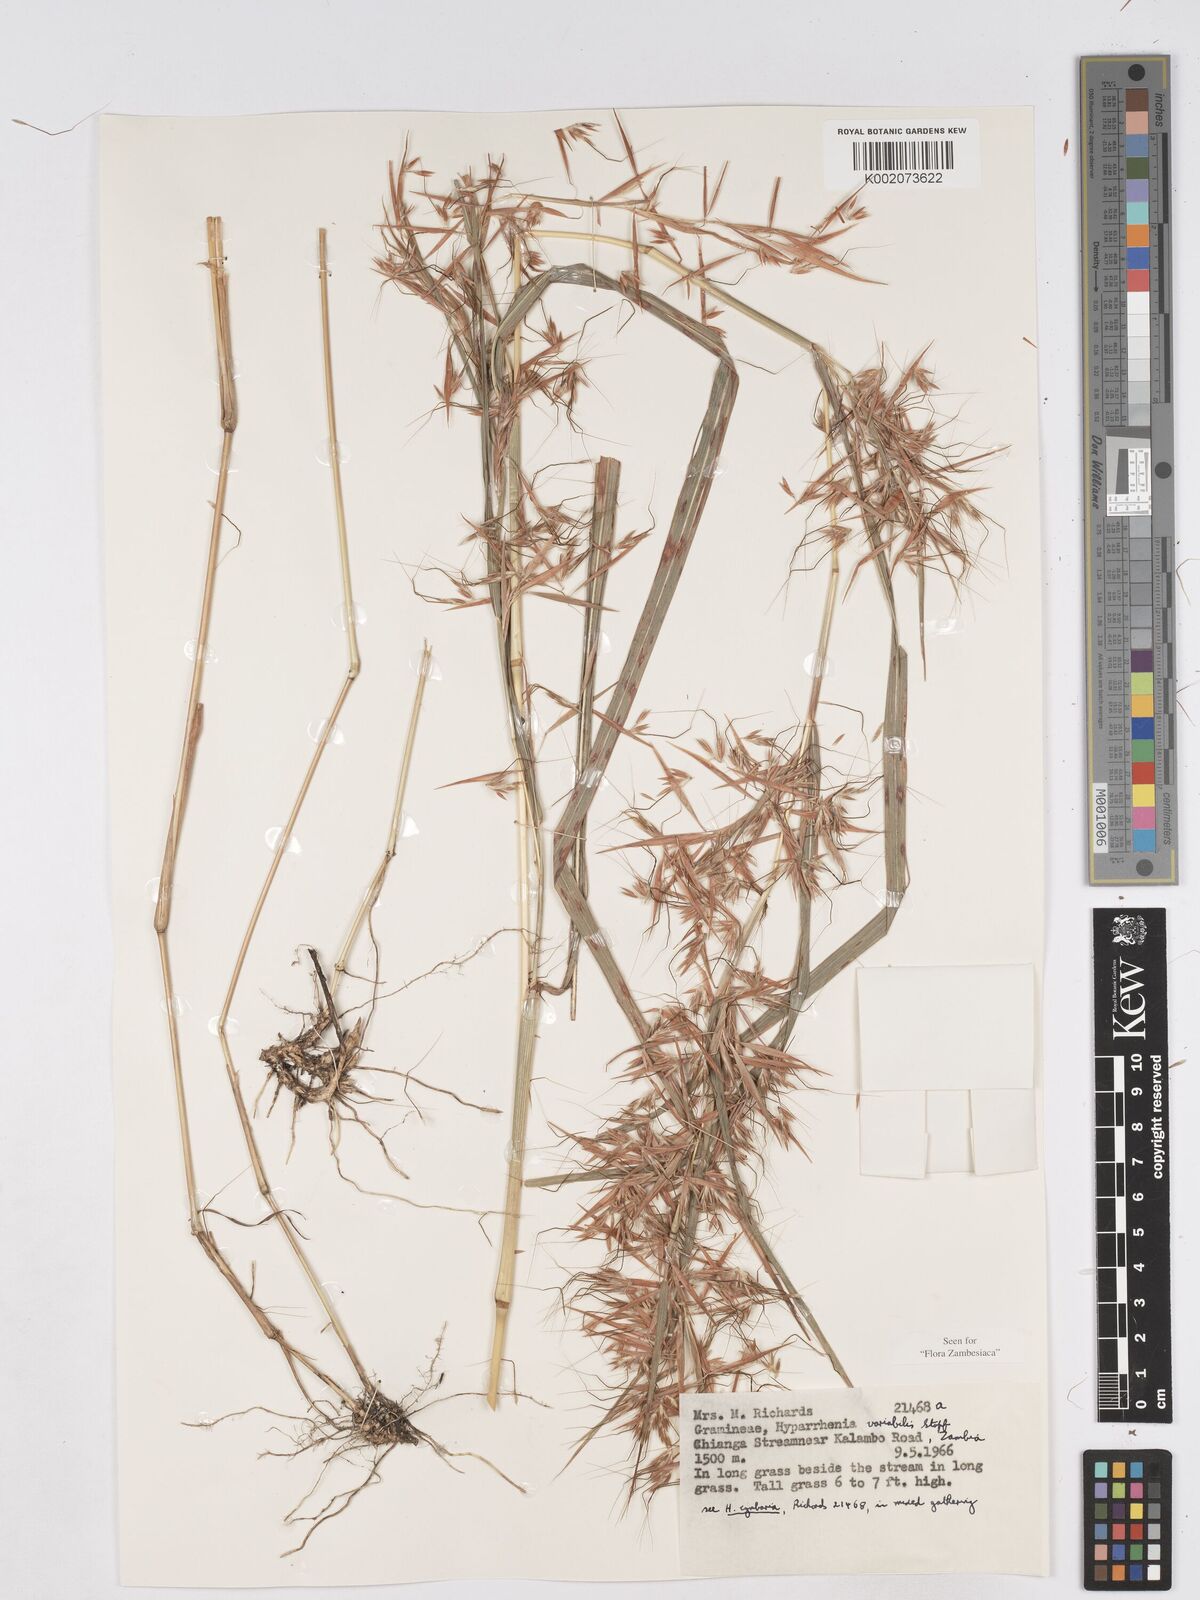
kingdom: Plantae
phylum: Tracheophyta
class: Liliopsida
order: Poales
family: Poaceae
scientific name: Poaceae
